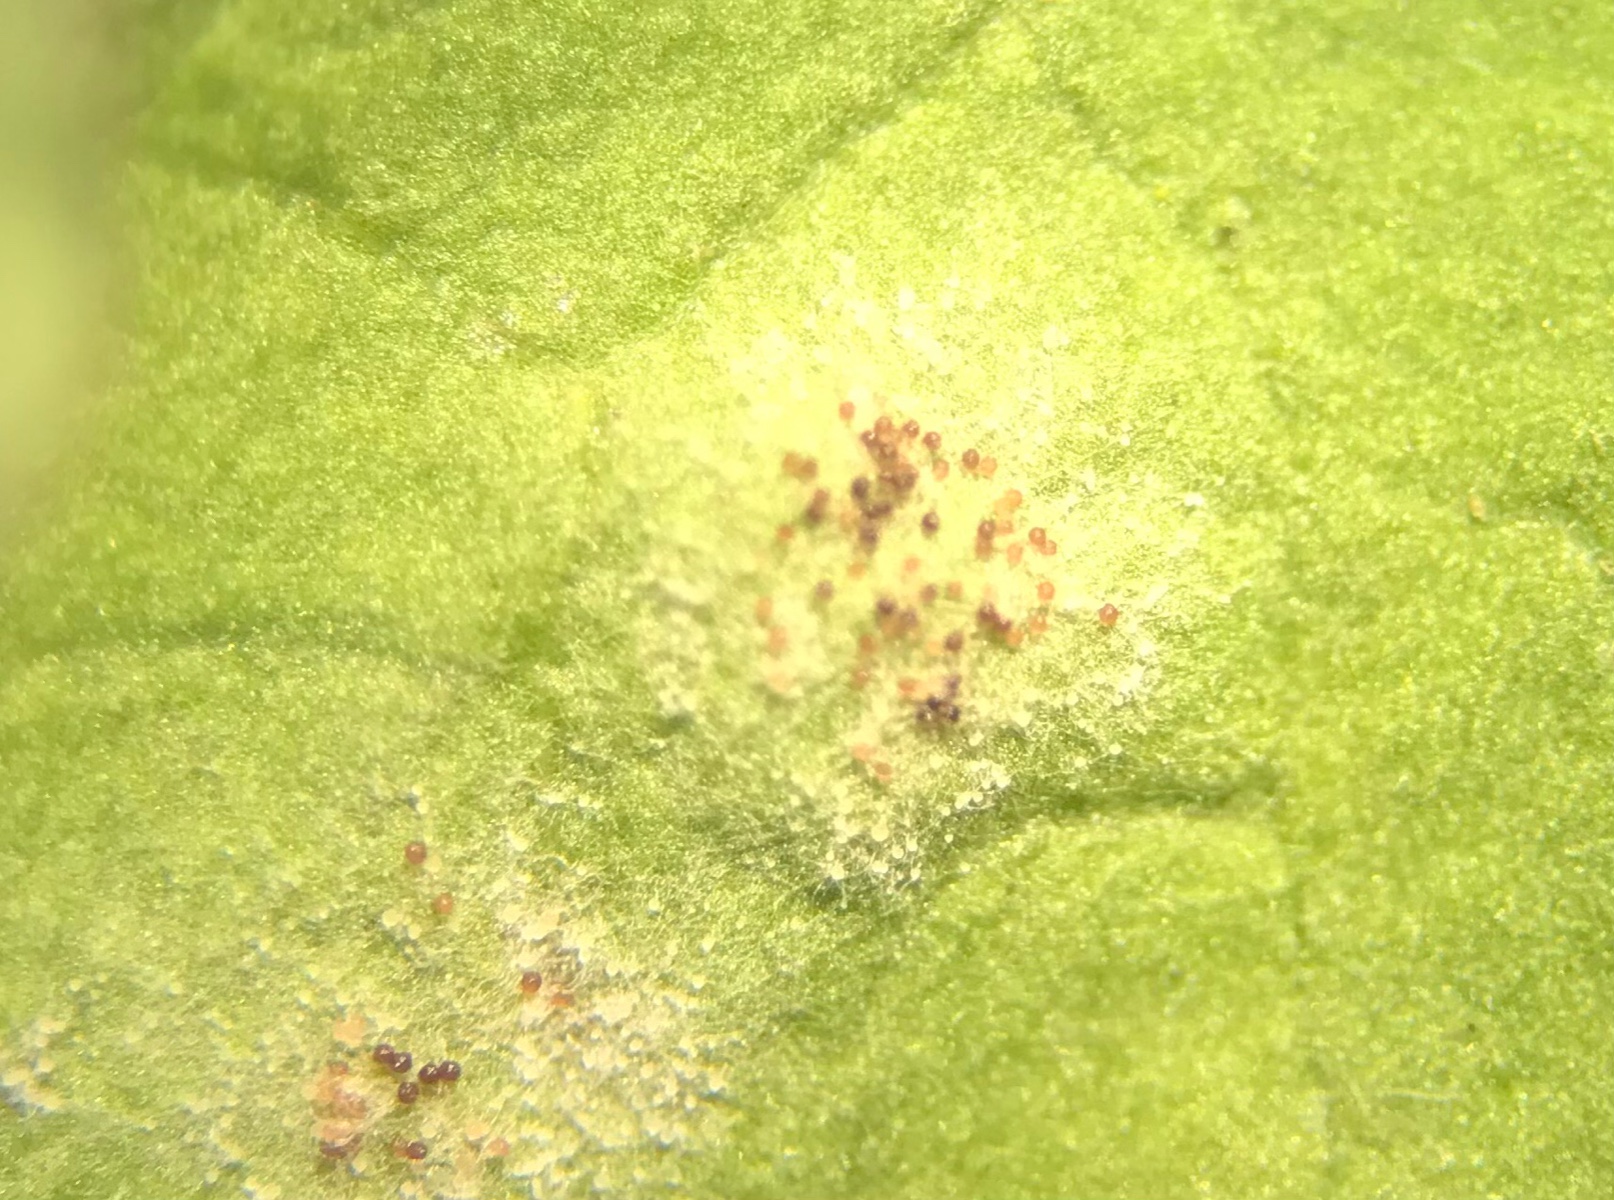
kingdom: Fungi
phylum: Ascomycota
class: Leotiomycetes
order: Helotiales
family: Erysiphaceae
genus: Podosphaera
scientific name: Podosphaera erigerontis-canadensis
